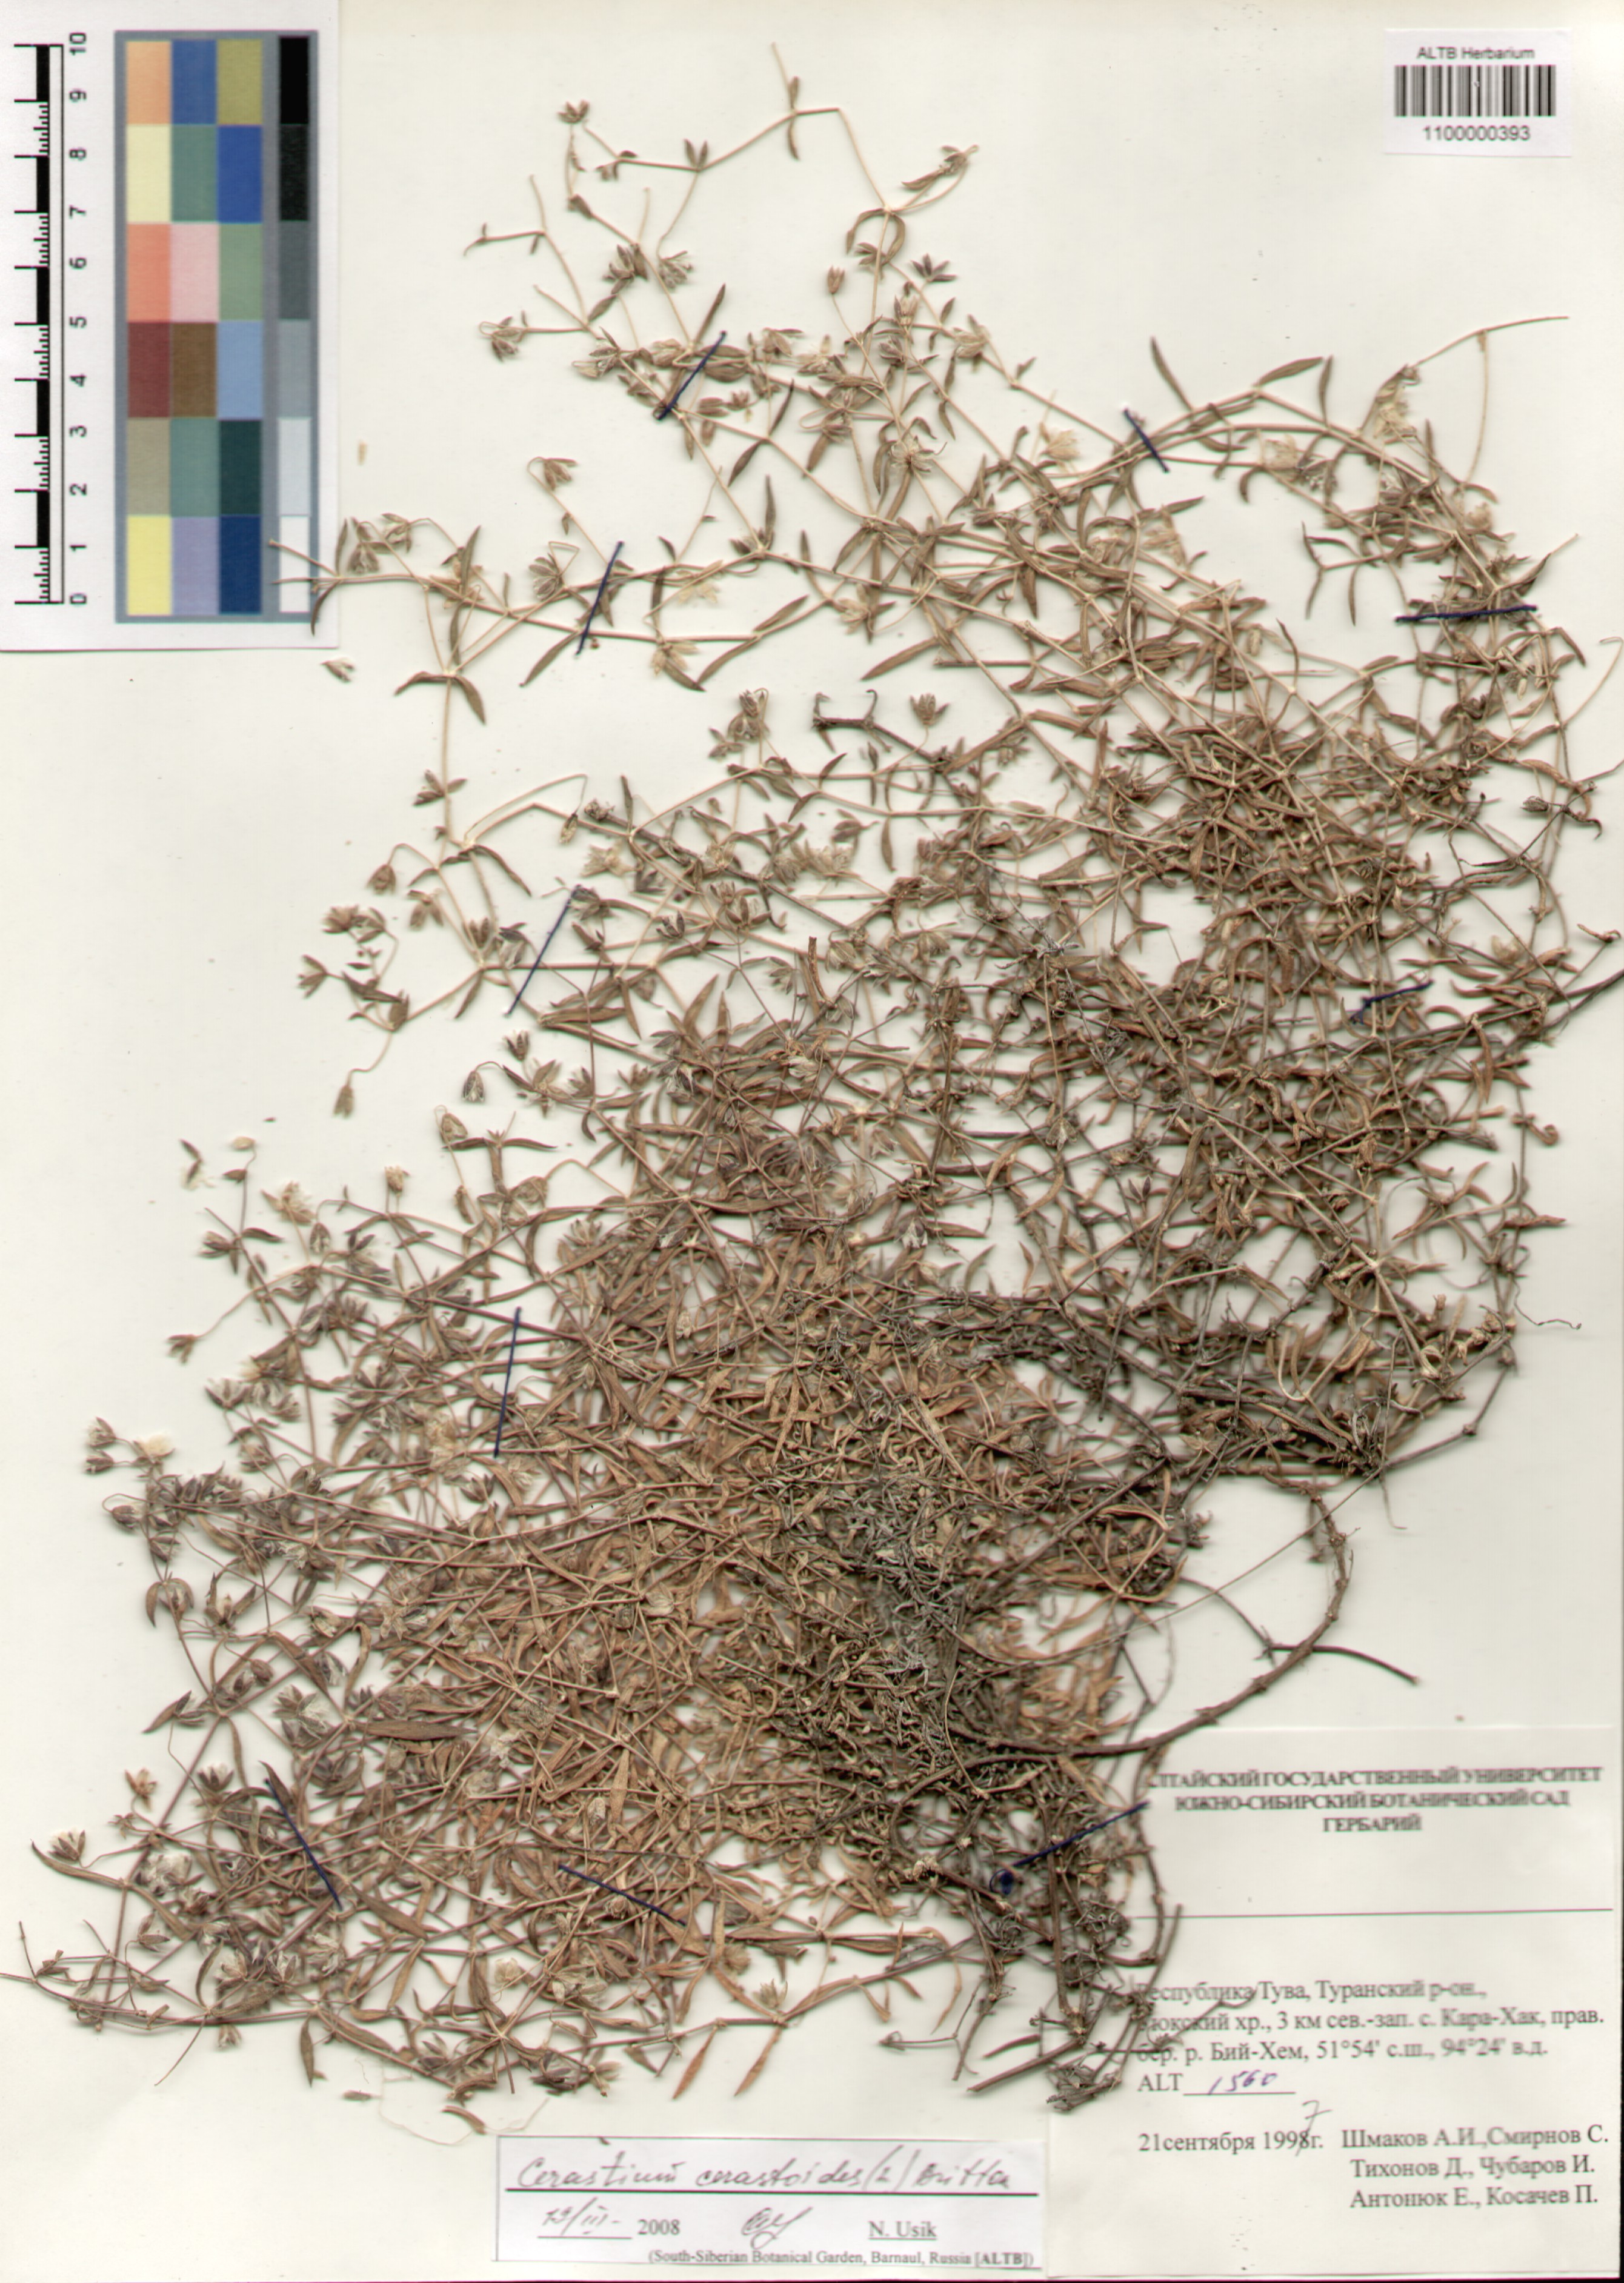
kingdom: Plantae
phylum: Tracheophyta
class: Magnoliopsida
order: Caryophyllales
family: Caryophyllaceae
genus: Dichodon
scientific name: Dichodon cerastoides
